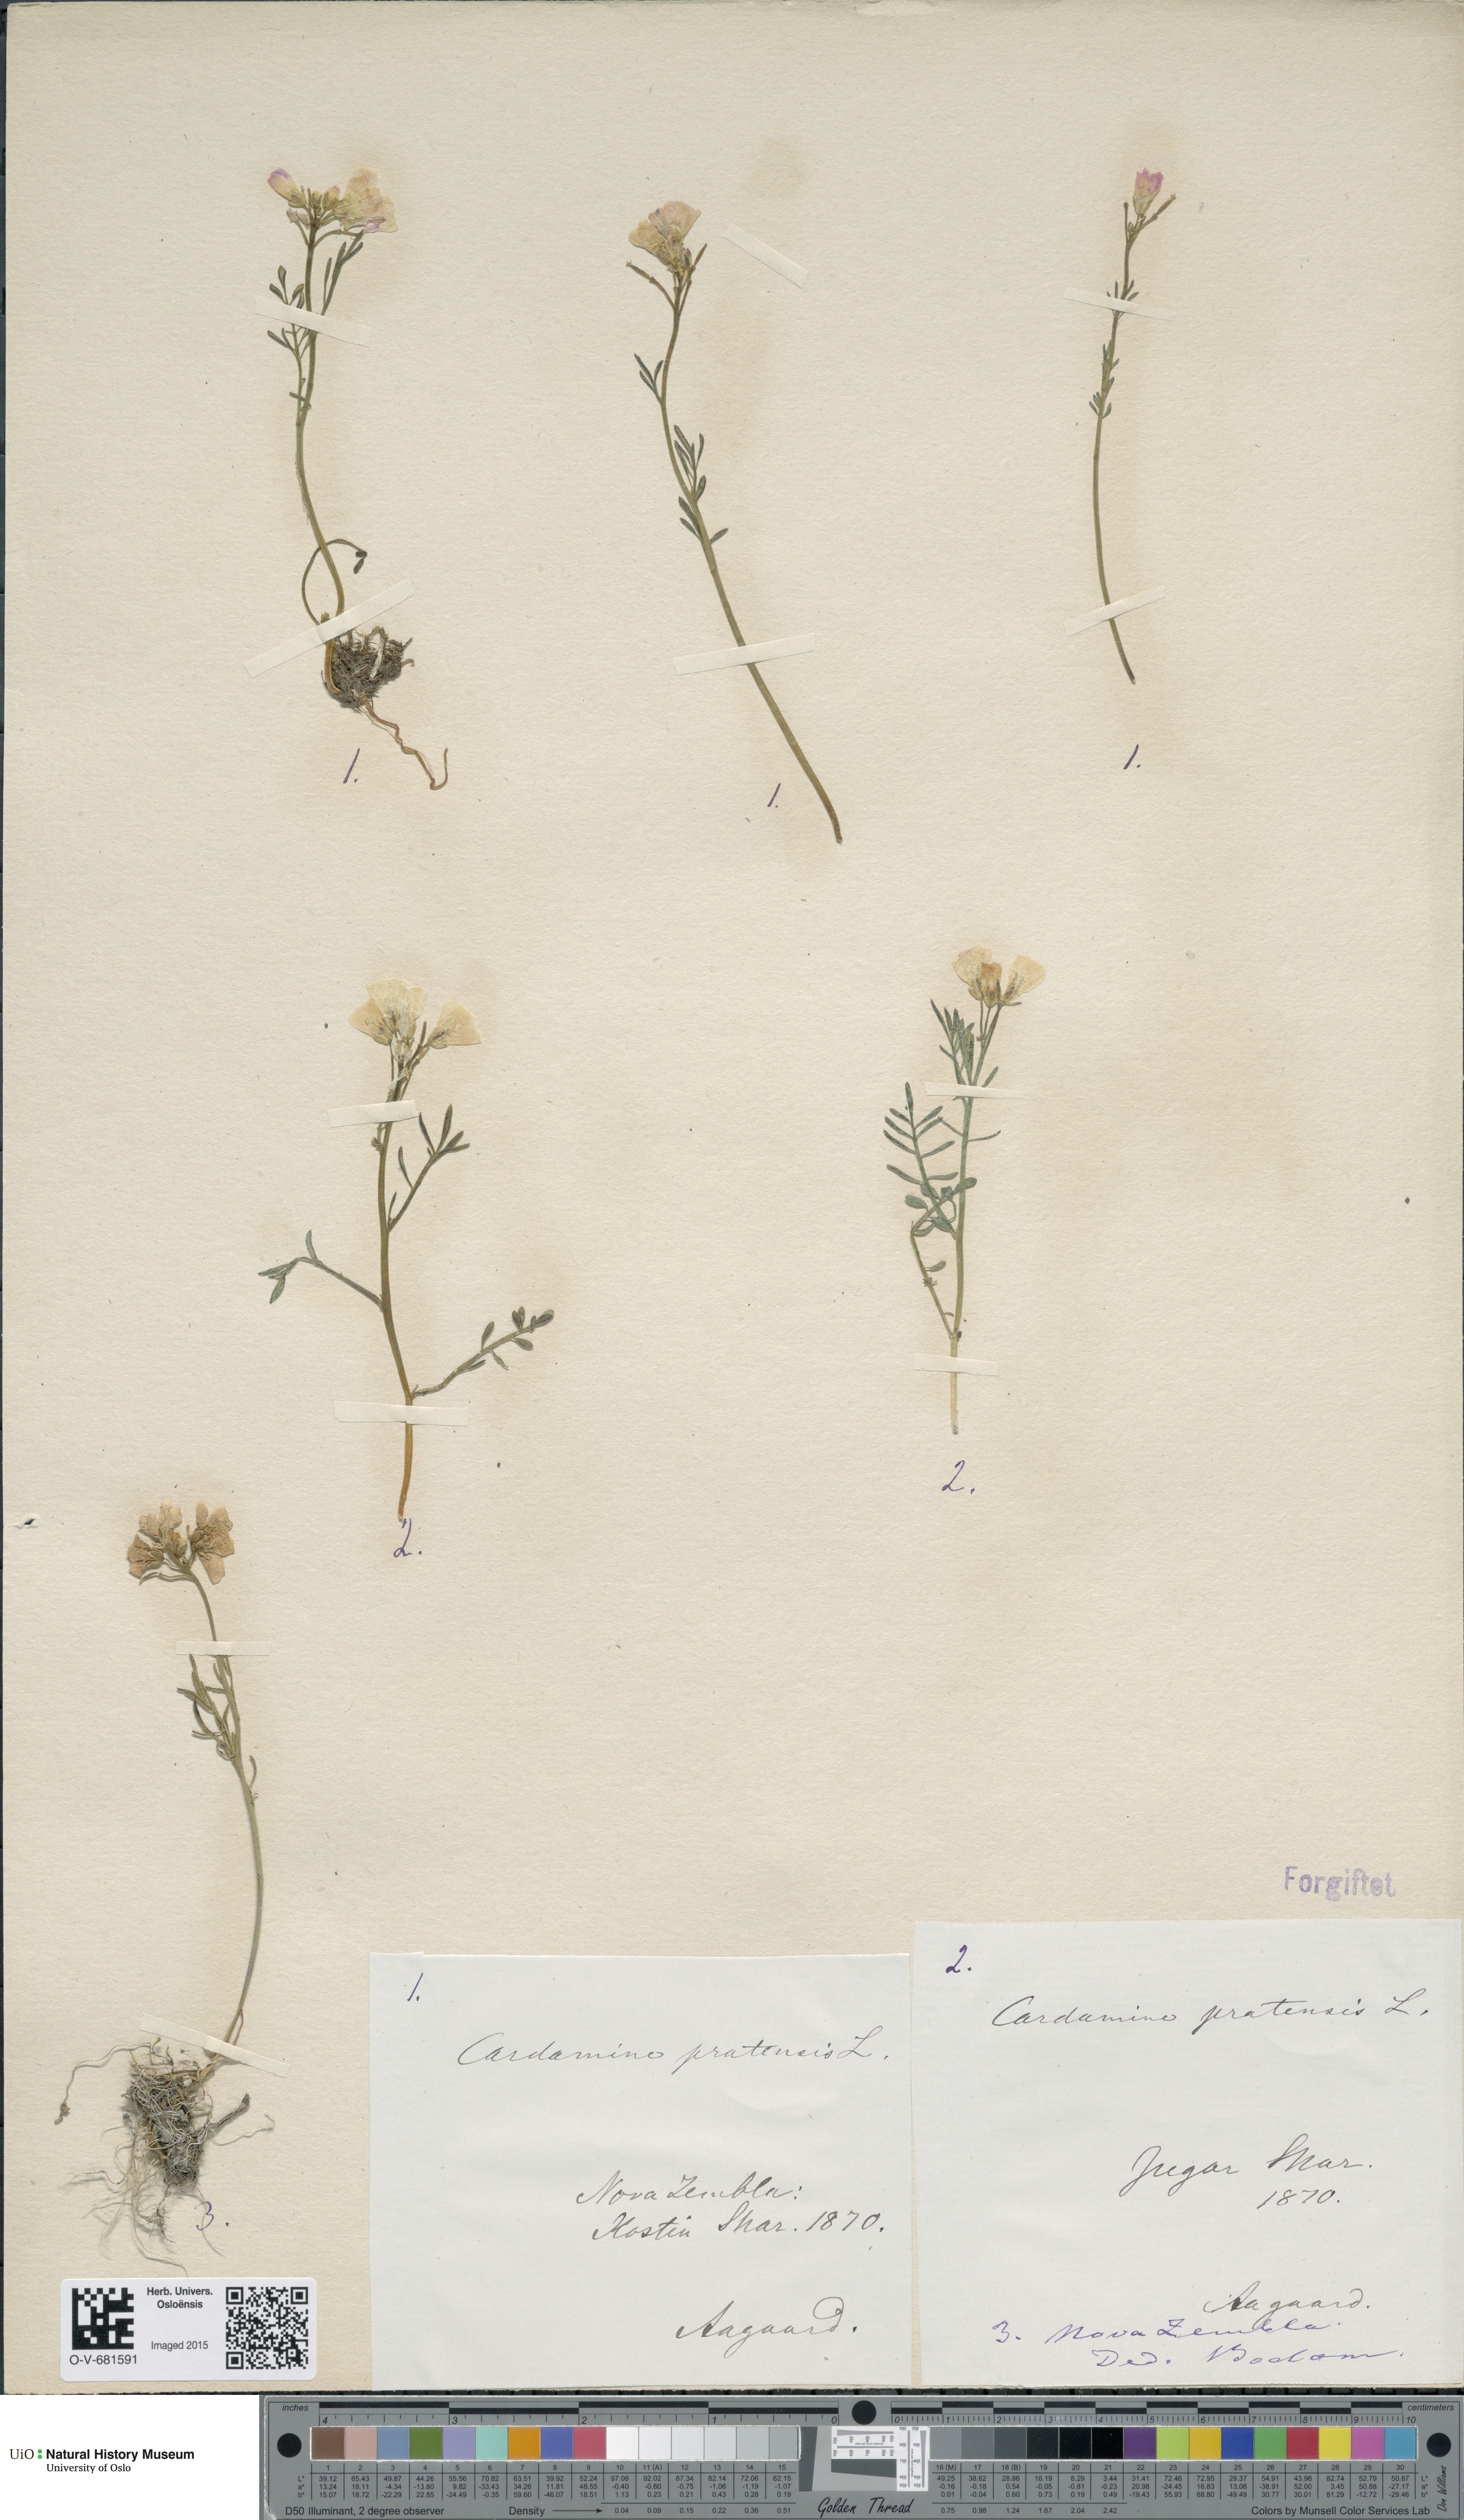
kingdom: Plantae
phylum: Tracheophyta
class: Magnoliopsida
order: Brassicales
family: Brassicaceae
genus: Cardamine
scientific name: Cardamine pratensis
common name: Cuckoo flower
